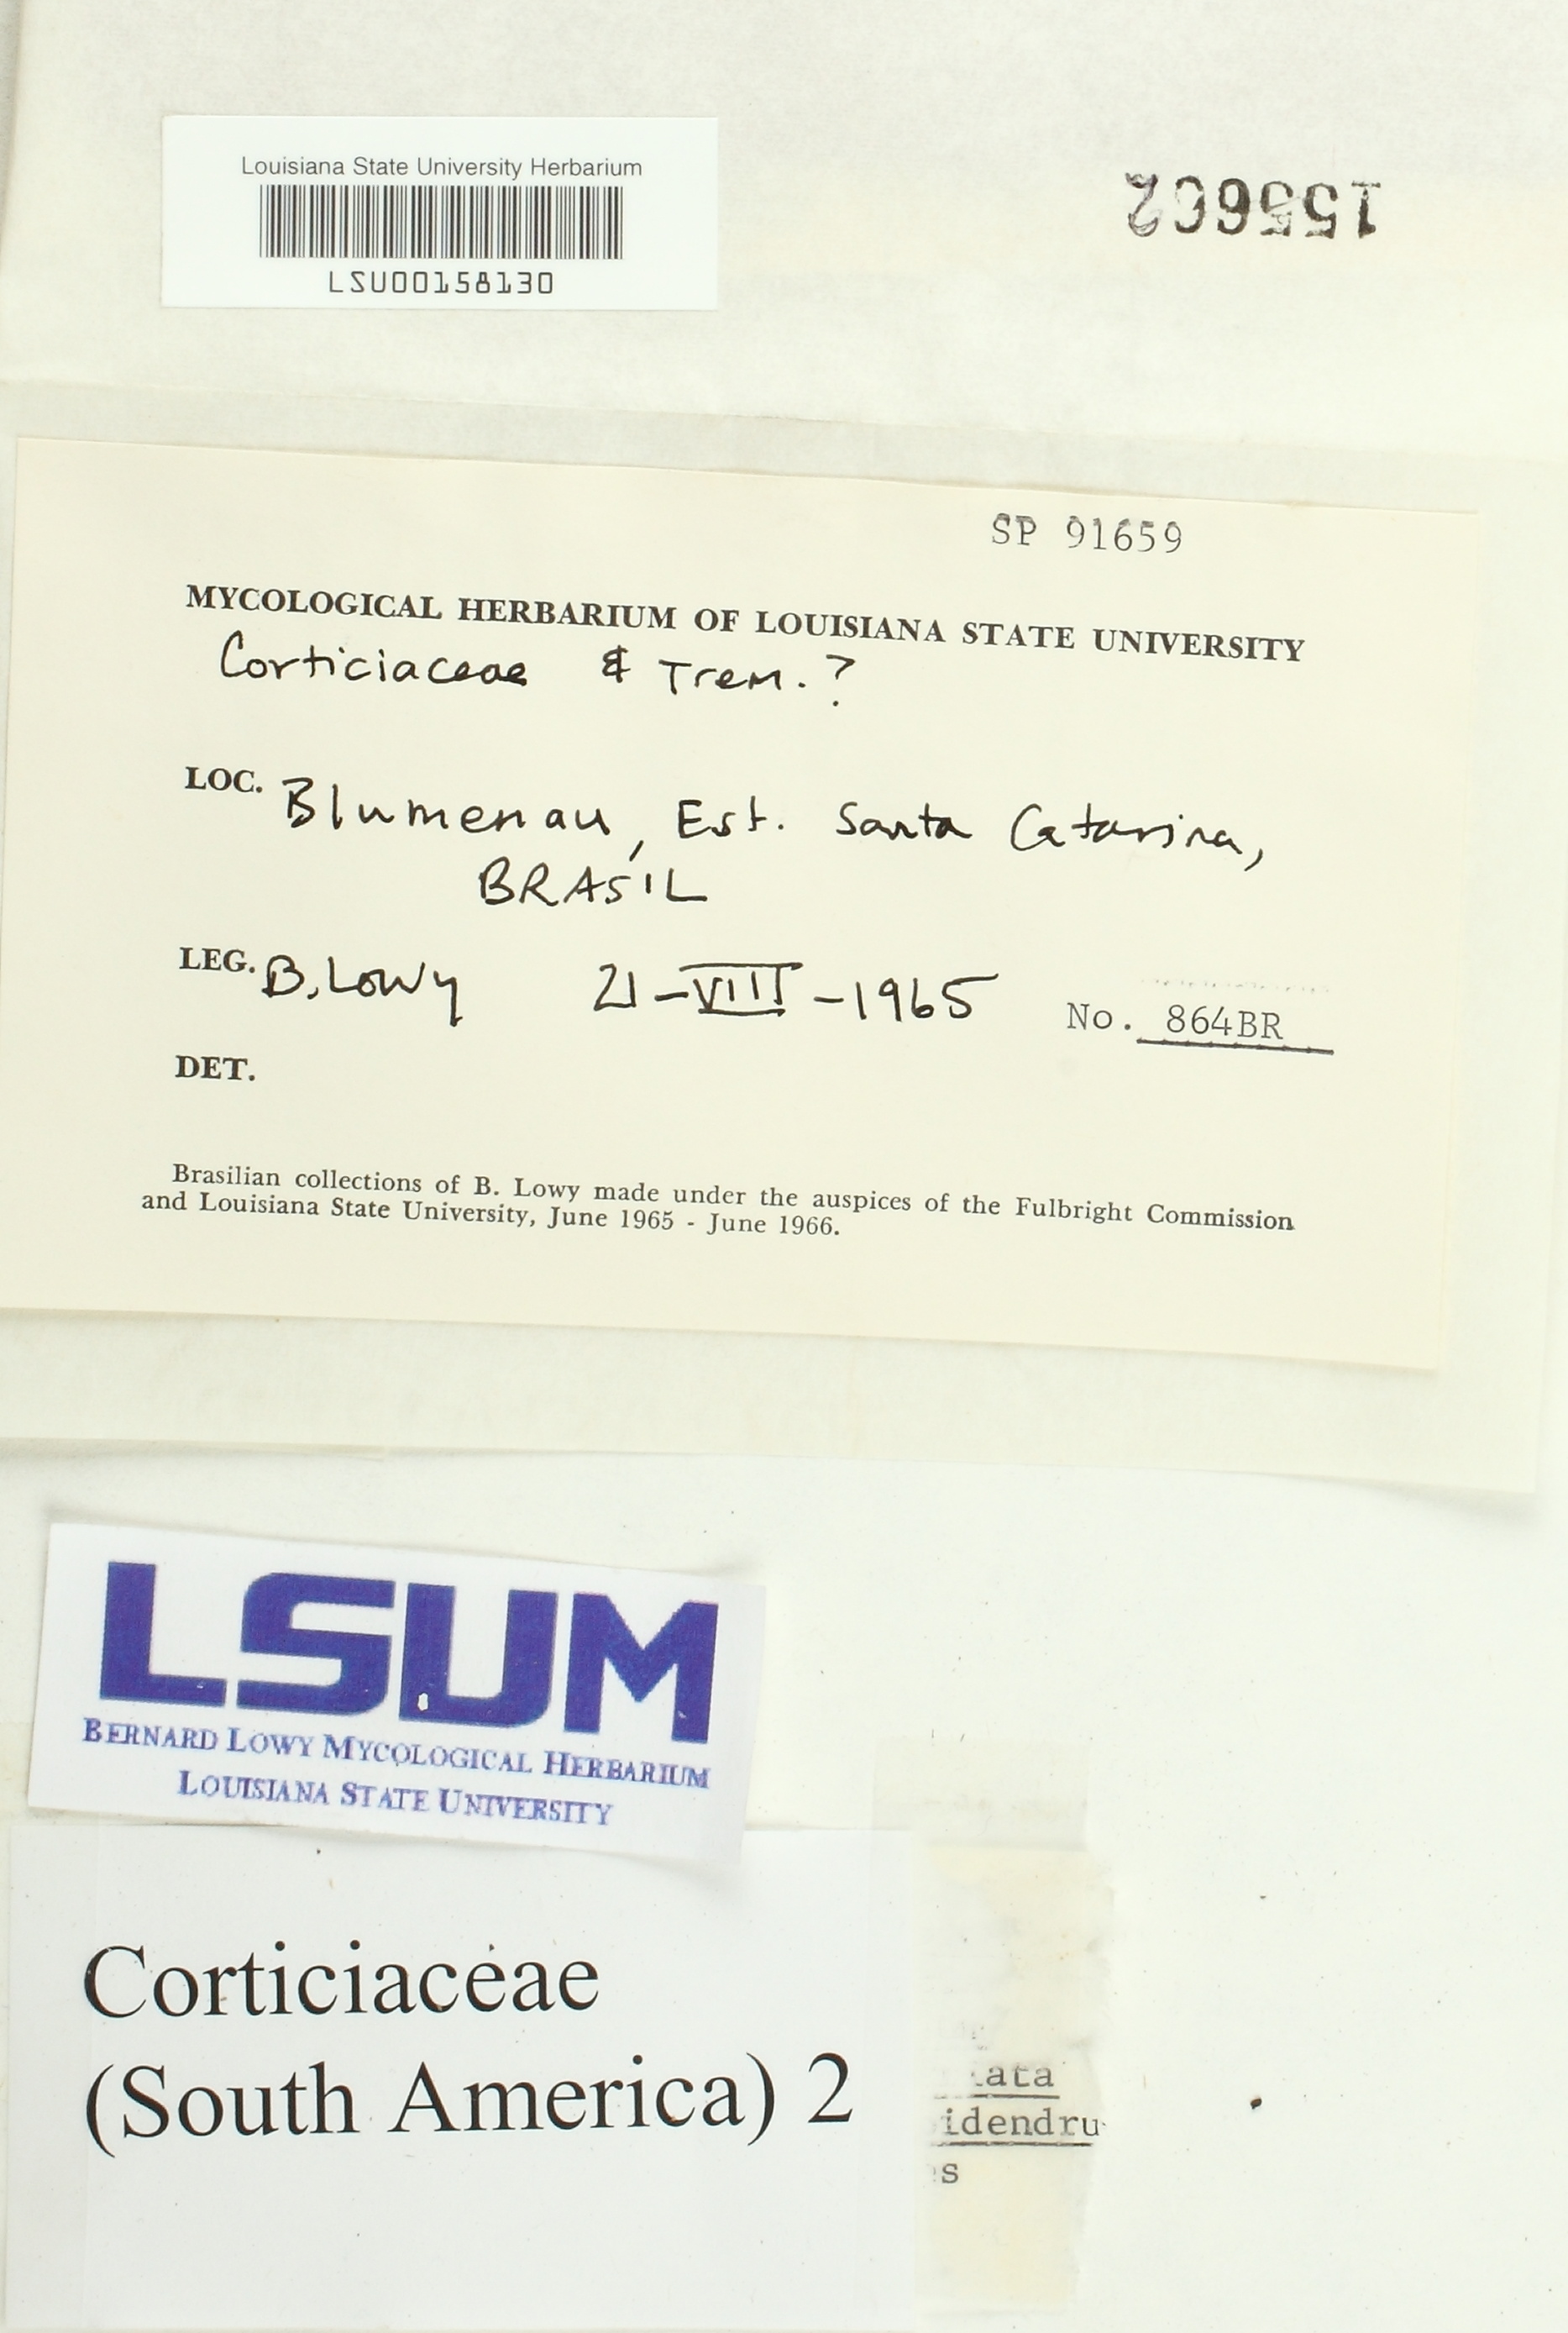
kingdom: Fungi
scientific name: Fungi
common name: Fungi
